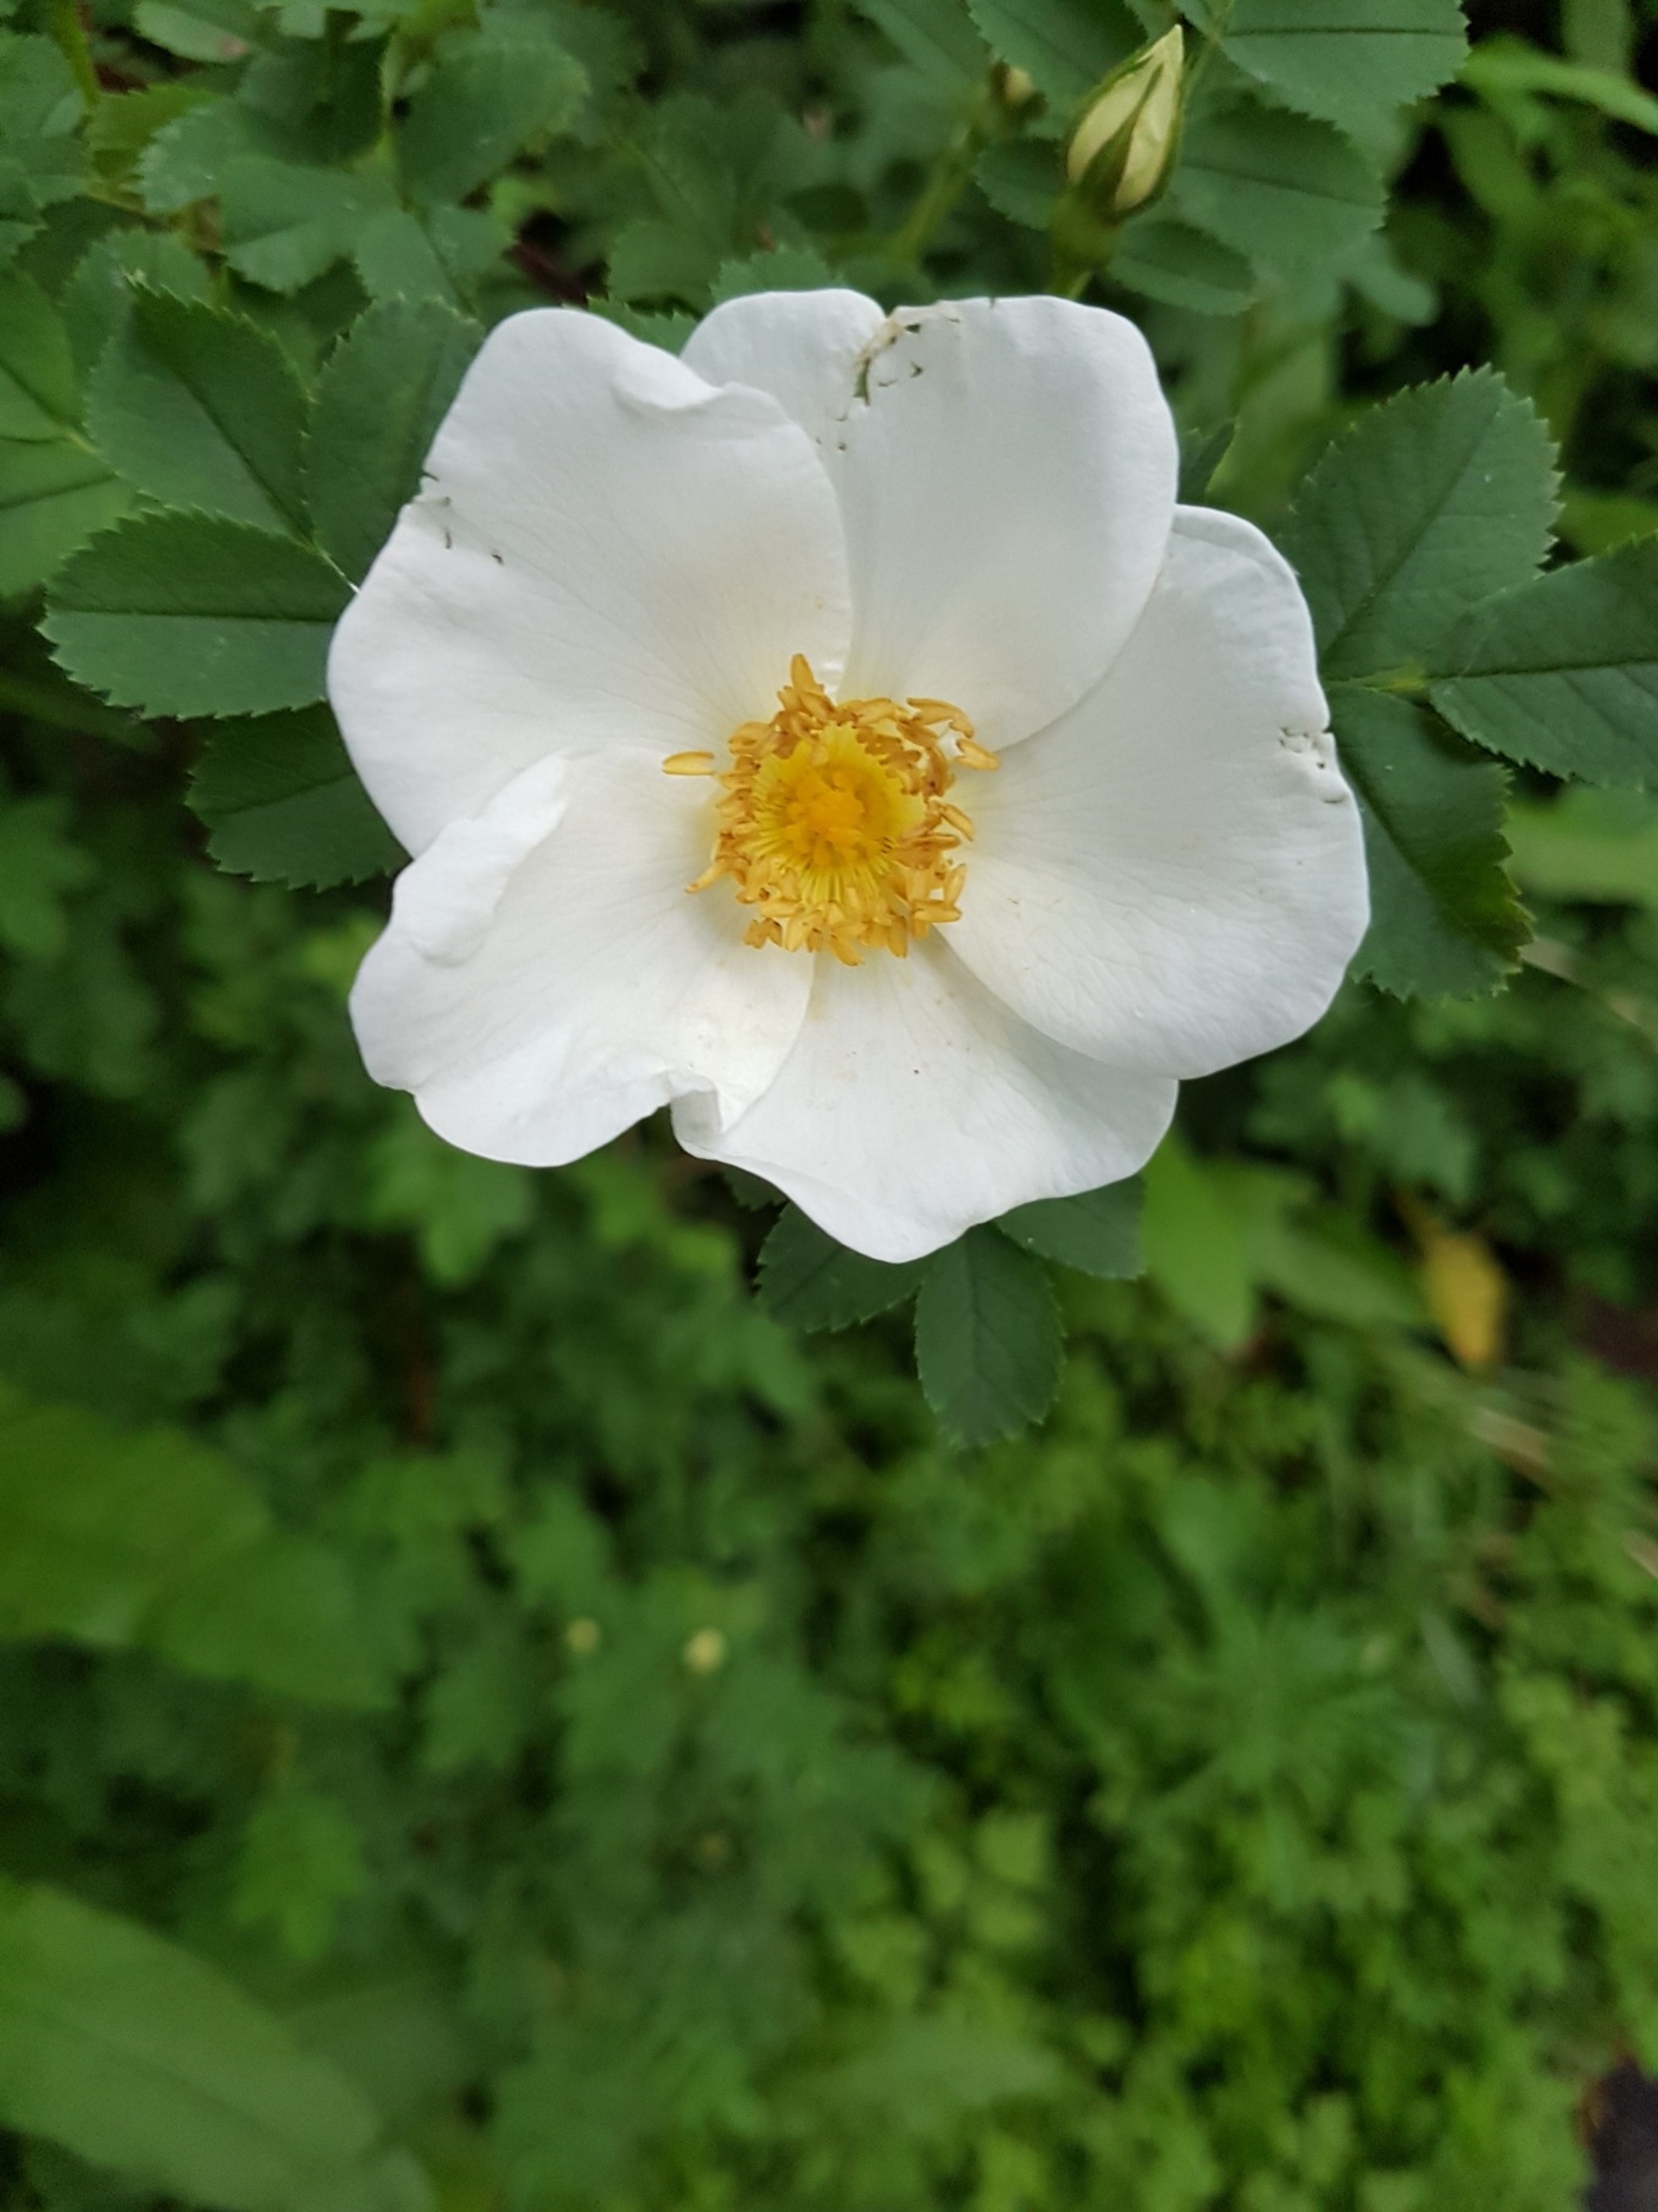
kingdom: Plantae
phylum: Tracheophyta
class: Magnoliopsida
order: Rosales
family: Rosaceae
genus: Rosa
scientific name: Rosa spinosissima
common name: Klit-rose
